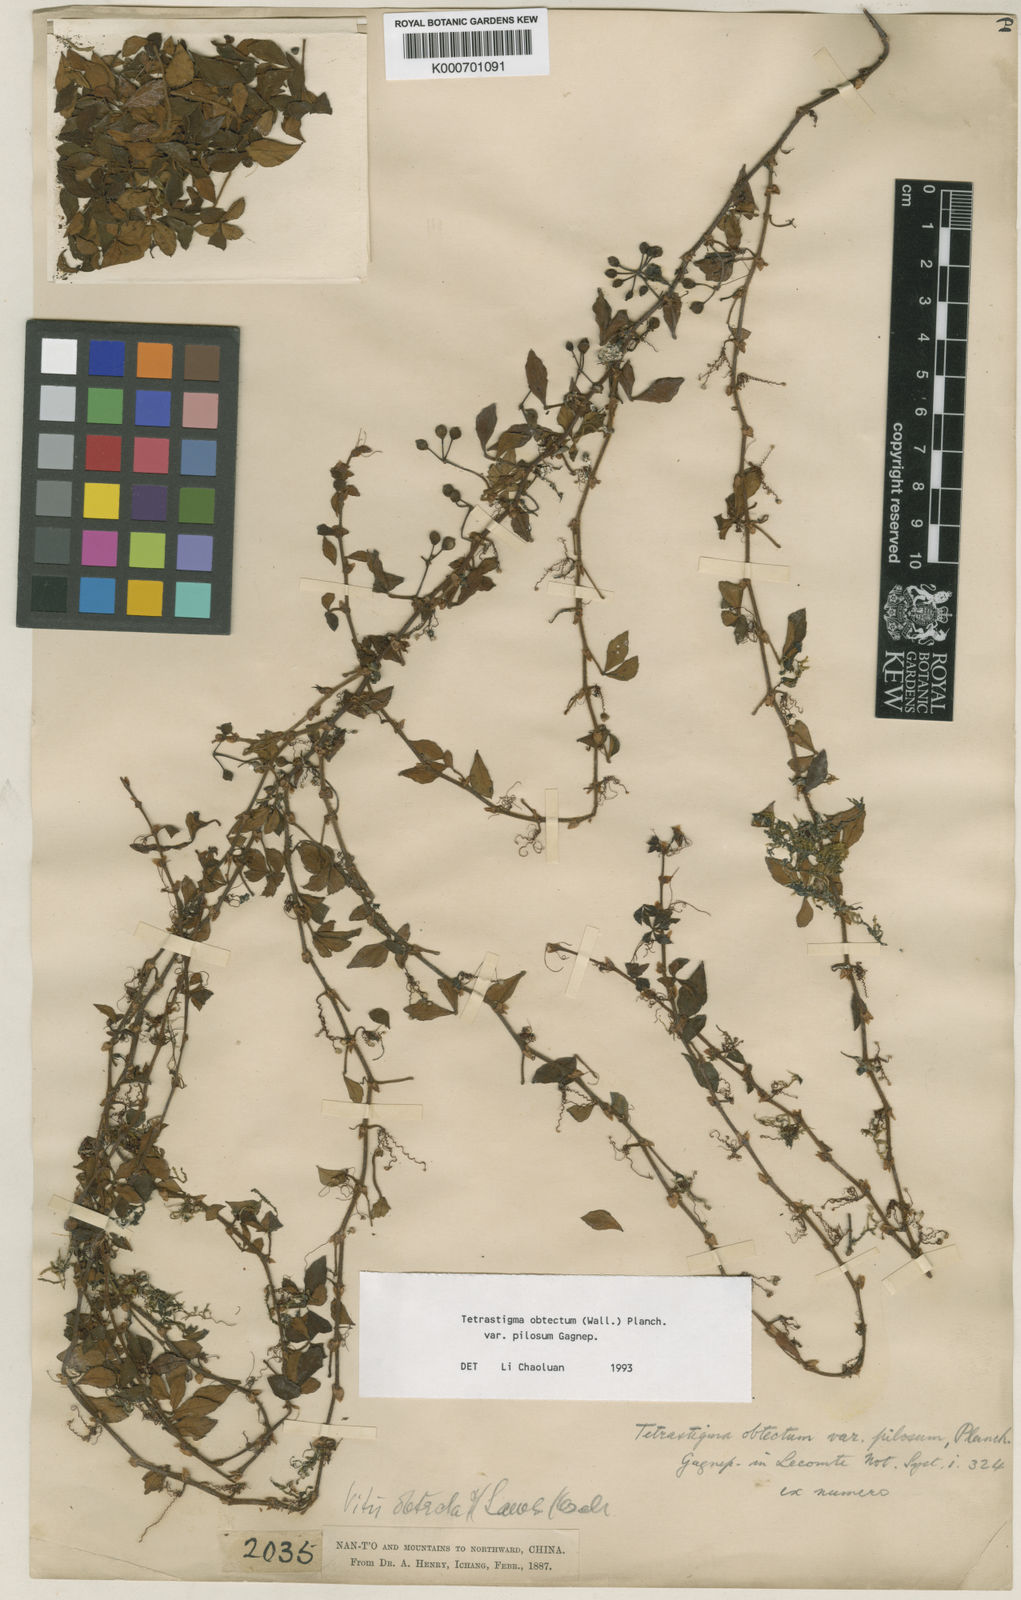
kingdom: Plantae
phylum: Tracheophyta
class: Magnoliopsida
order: Vitales
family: Vitaceae
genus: Tetrastigma
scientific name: Tetrastigma
